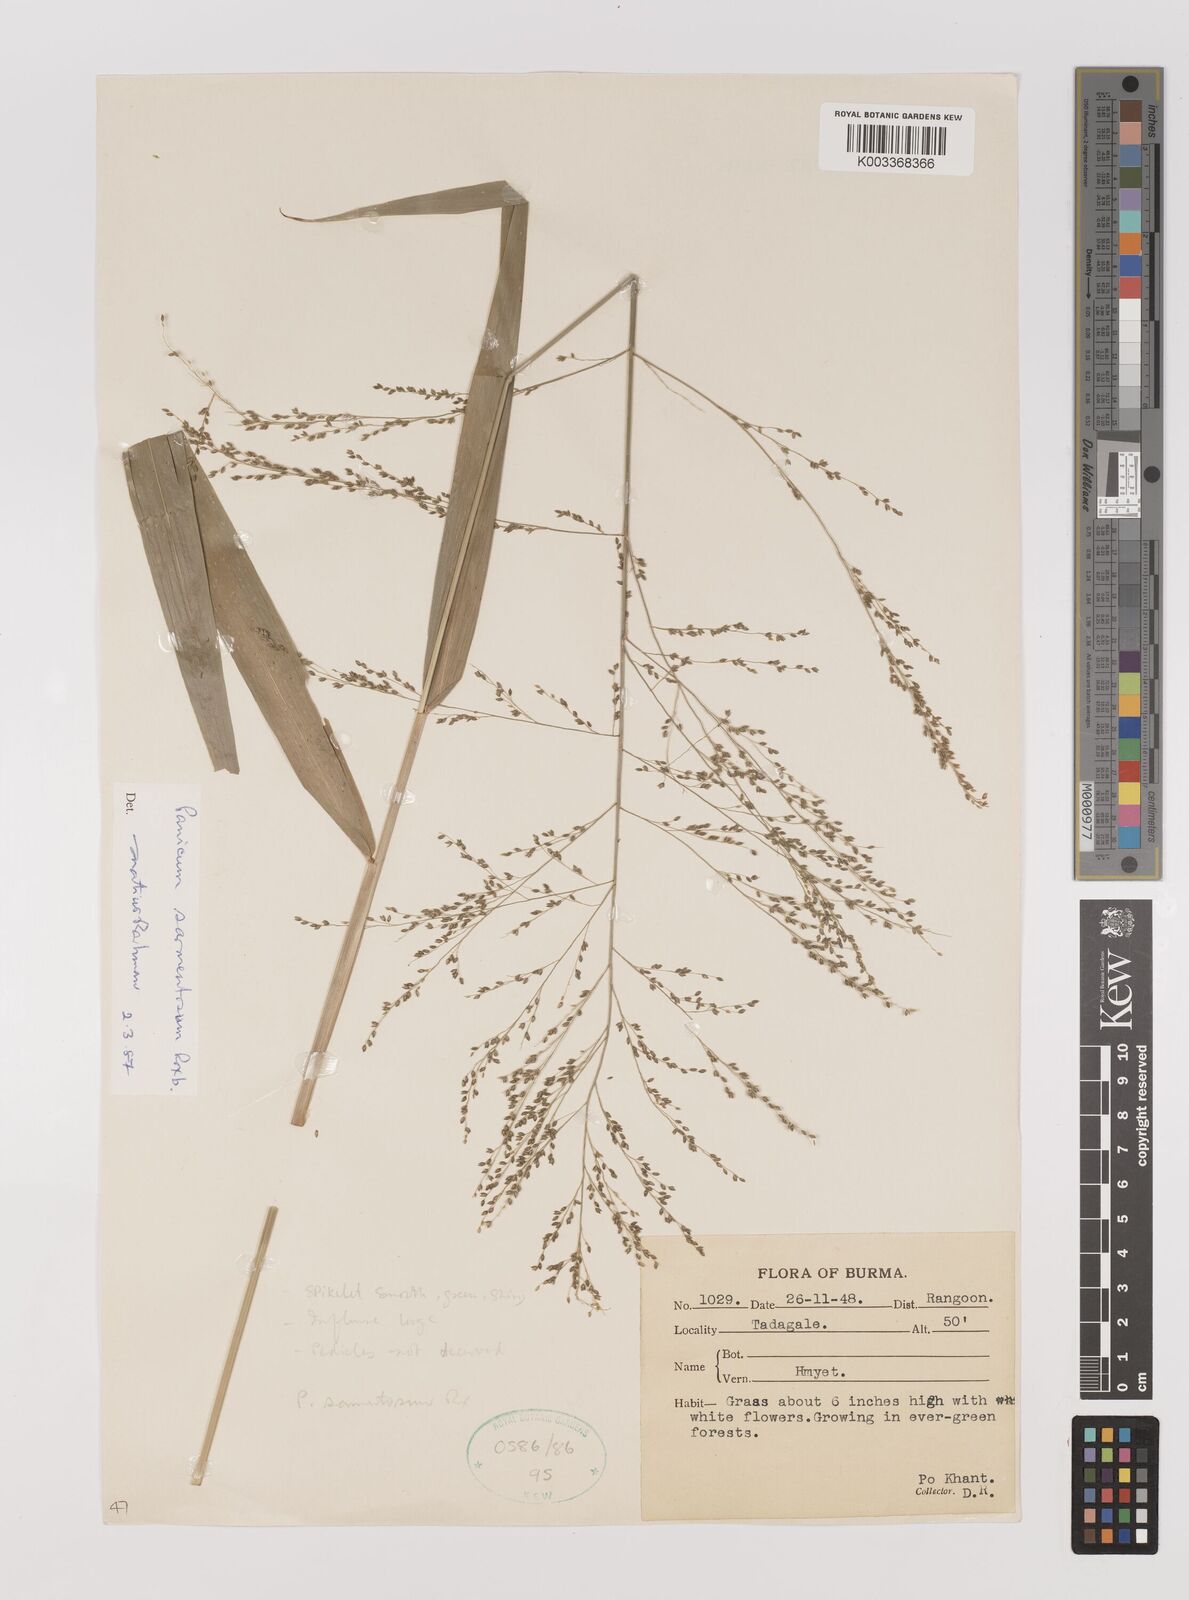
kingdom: Plantae
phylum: Tracheophyta
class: Liliopsida
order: Poales
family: Poaceae
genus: Panicum
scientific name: Panicum sarmentosum
